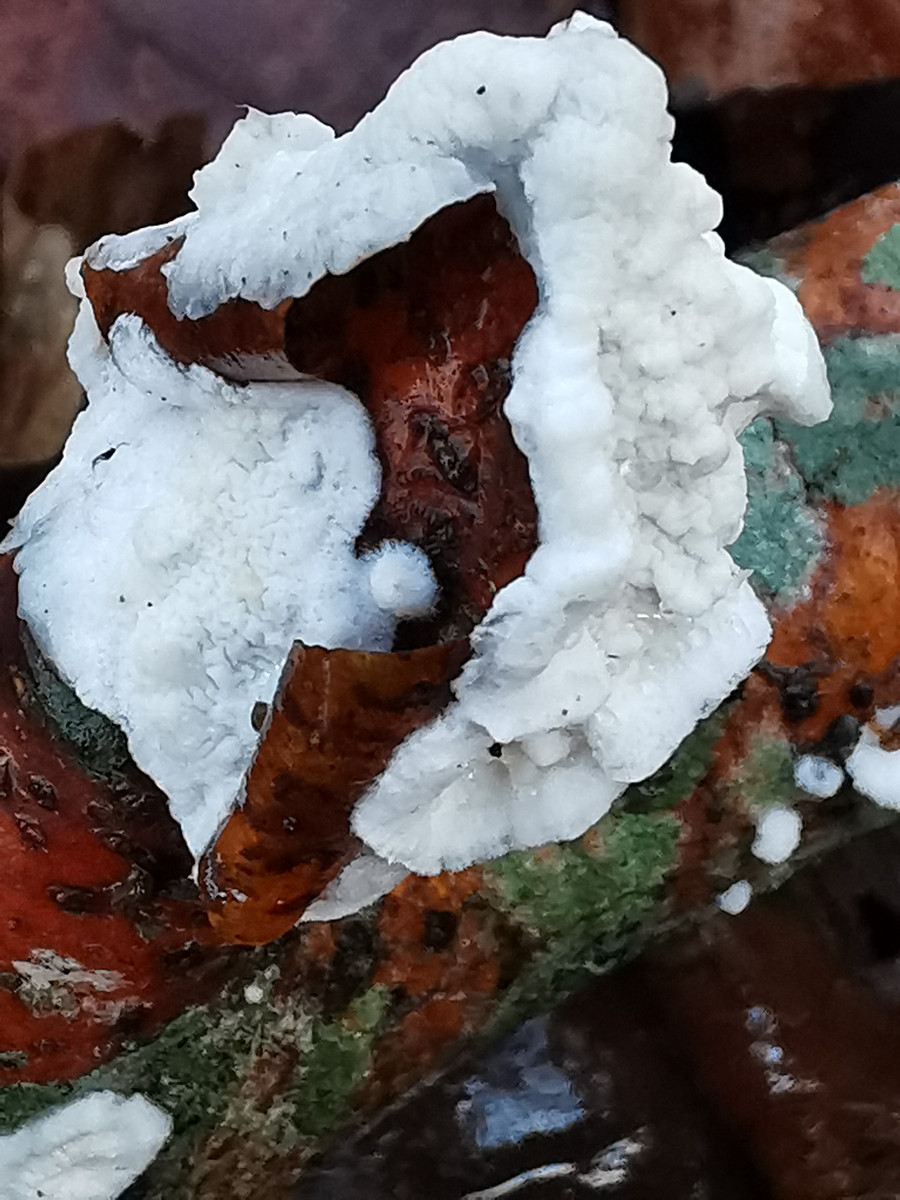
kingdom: Fungi
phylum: Basidiomycota
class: Agaricomycetes
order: Polyporales
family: Irpicaceae
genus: Byssomerulius
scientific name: Byssomerulius corium
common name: læder-åresvamp
